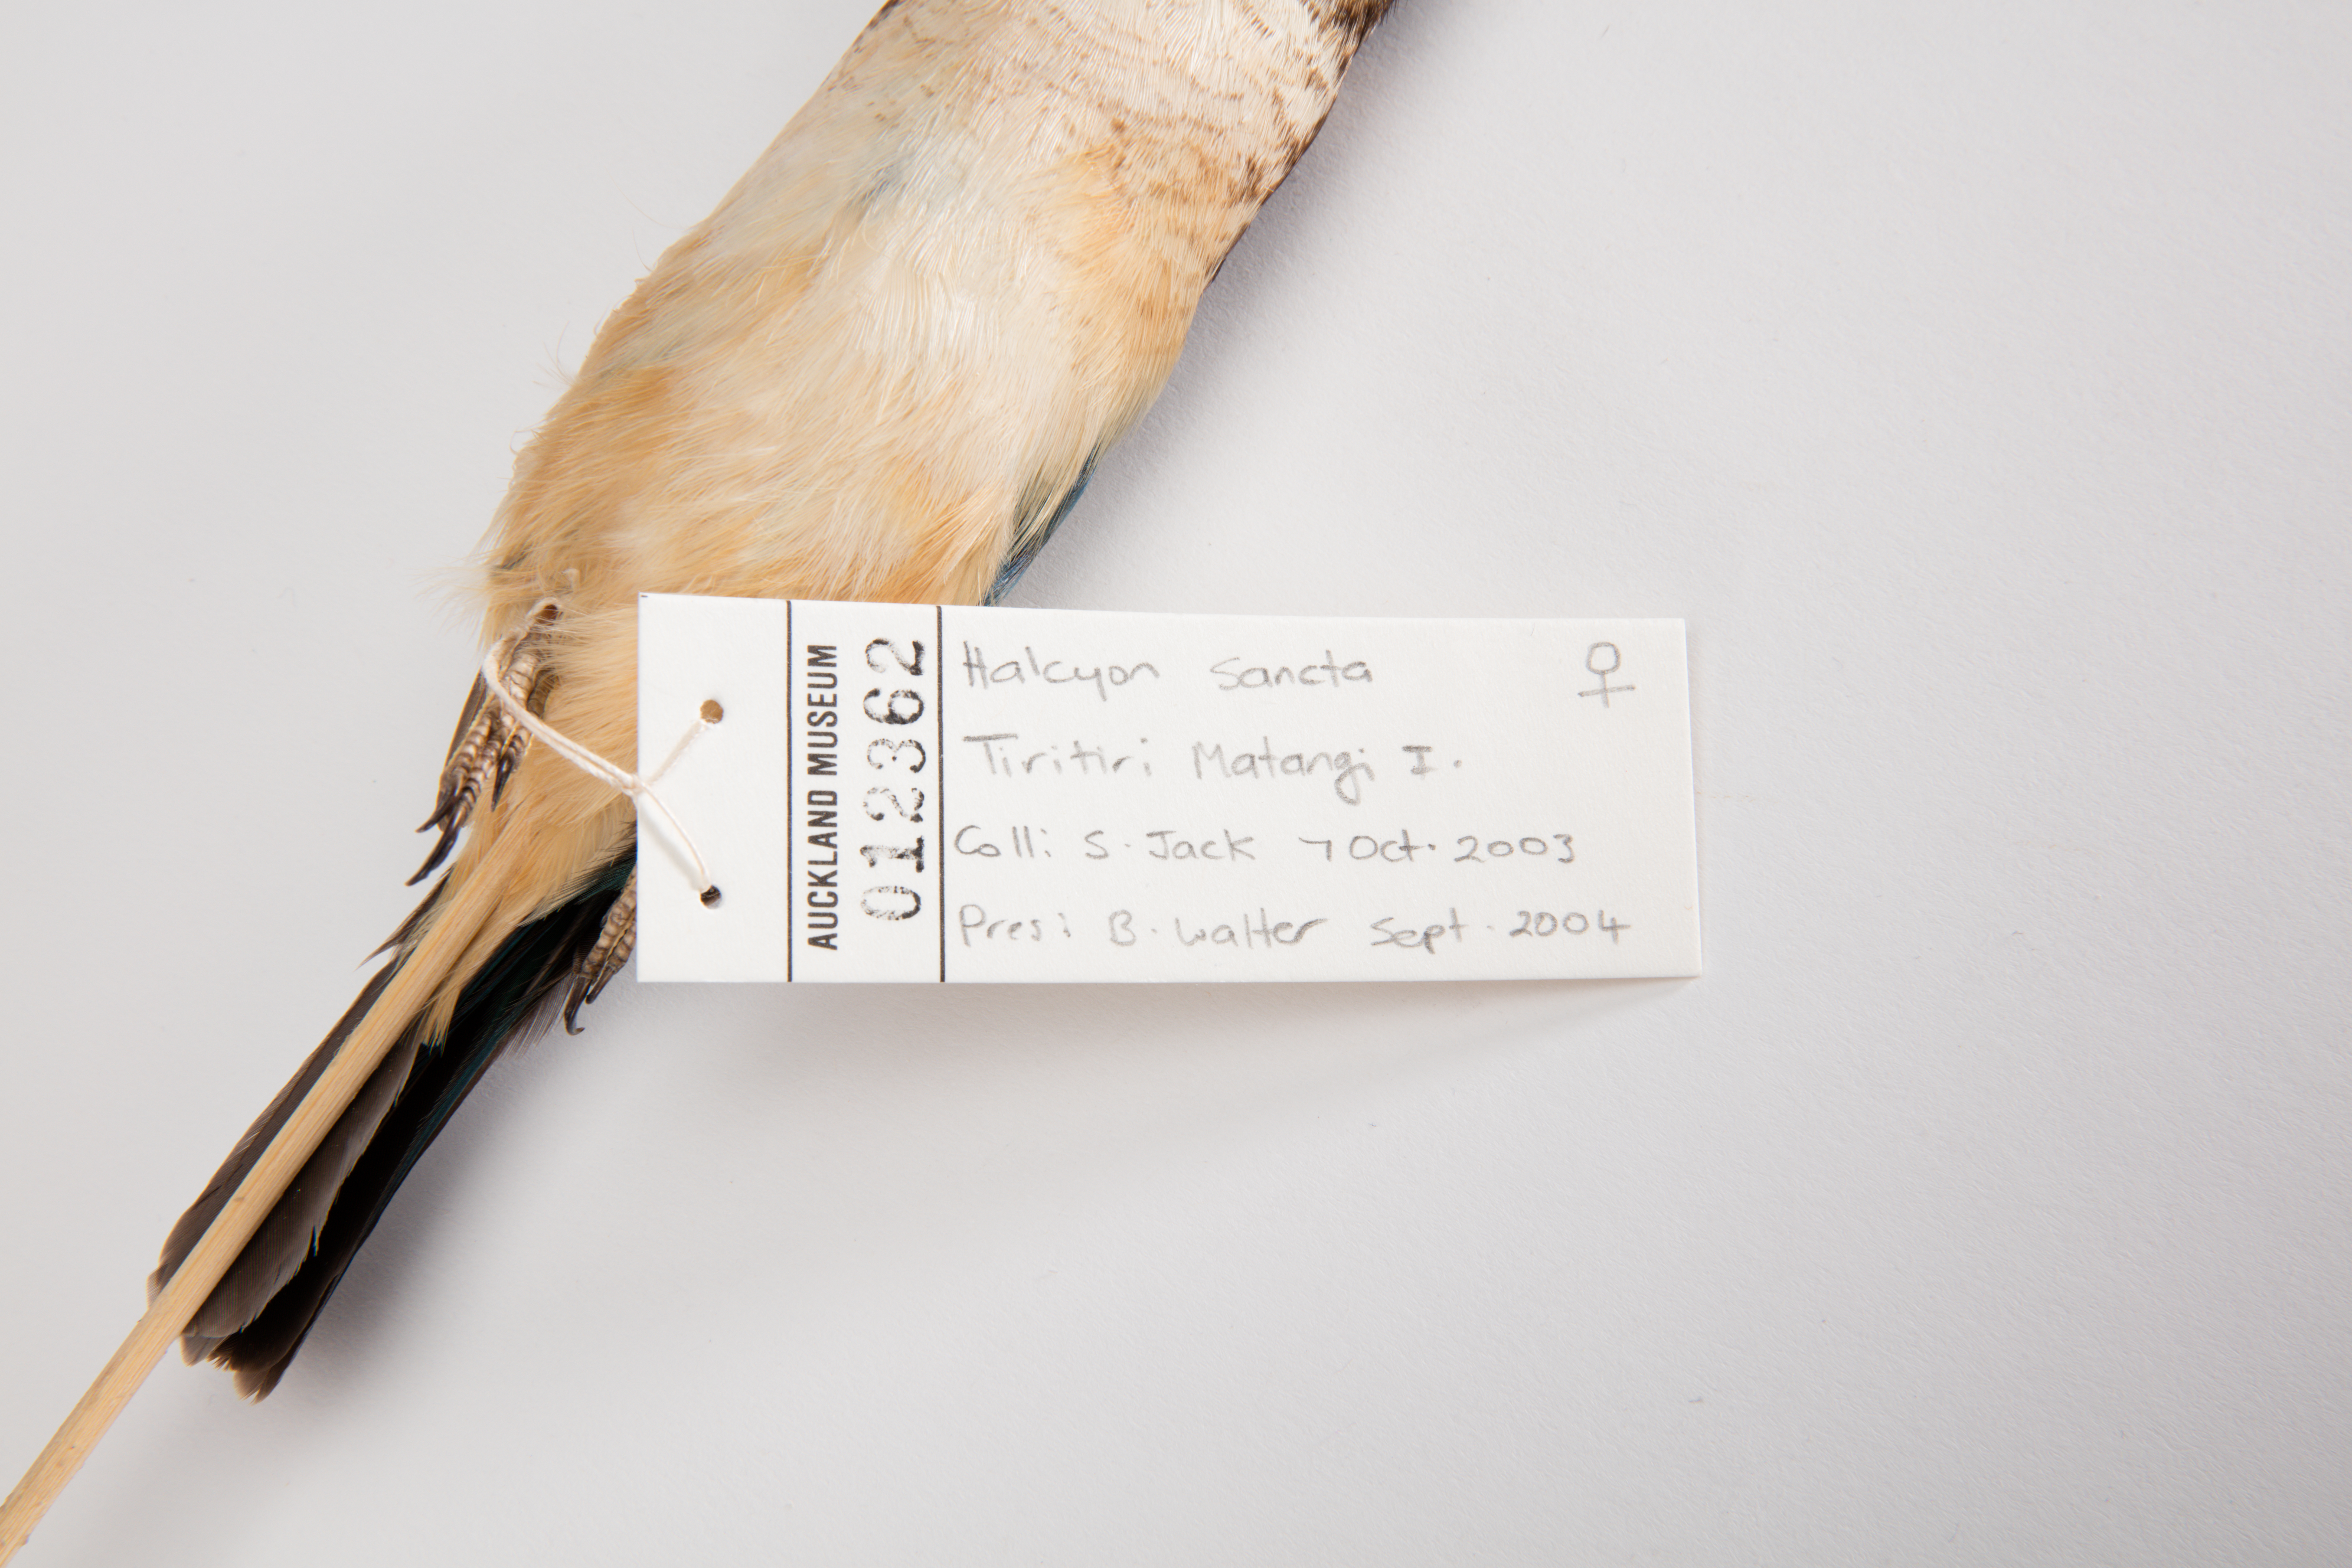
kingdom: Animalia
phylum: Chordata
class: Aves
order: Coraciiformes
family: Alcedinidae
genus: Todiramphus
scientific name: Todiramphus sanctus
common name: Sacred kingfisher
